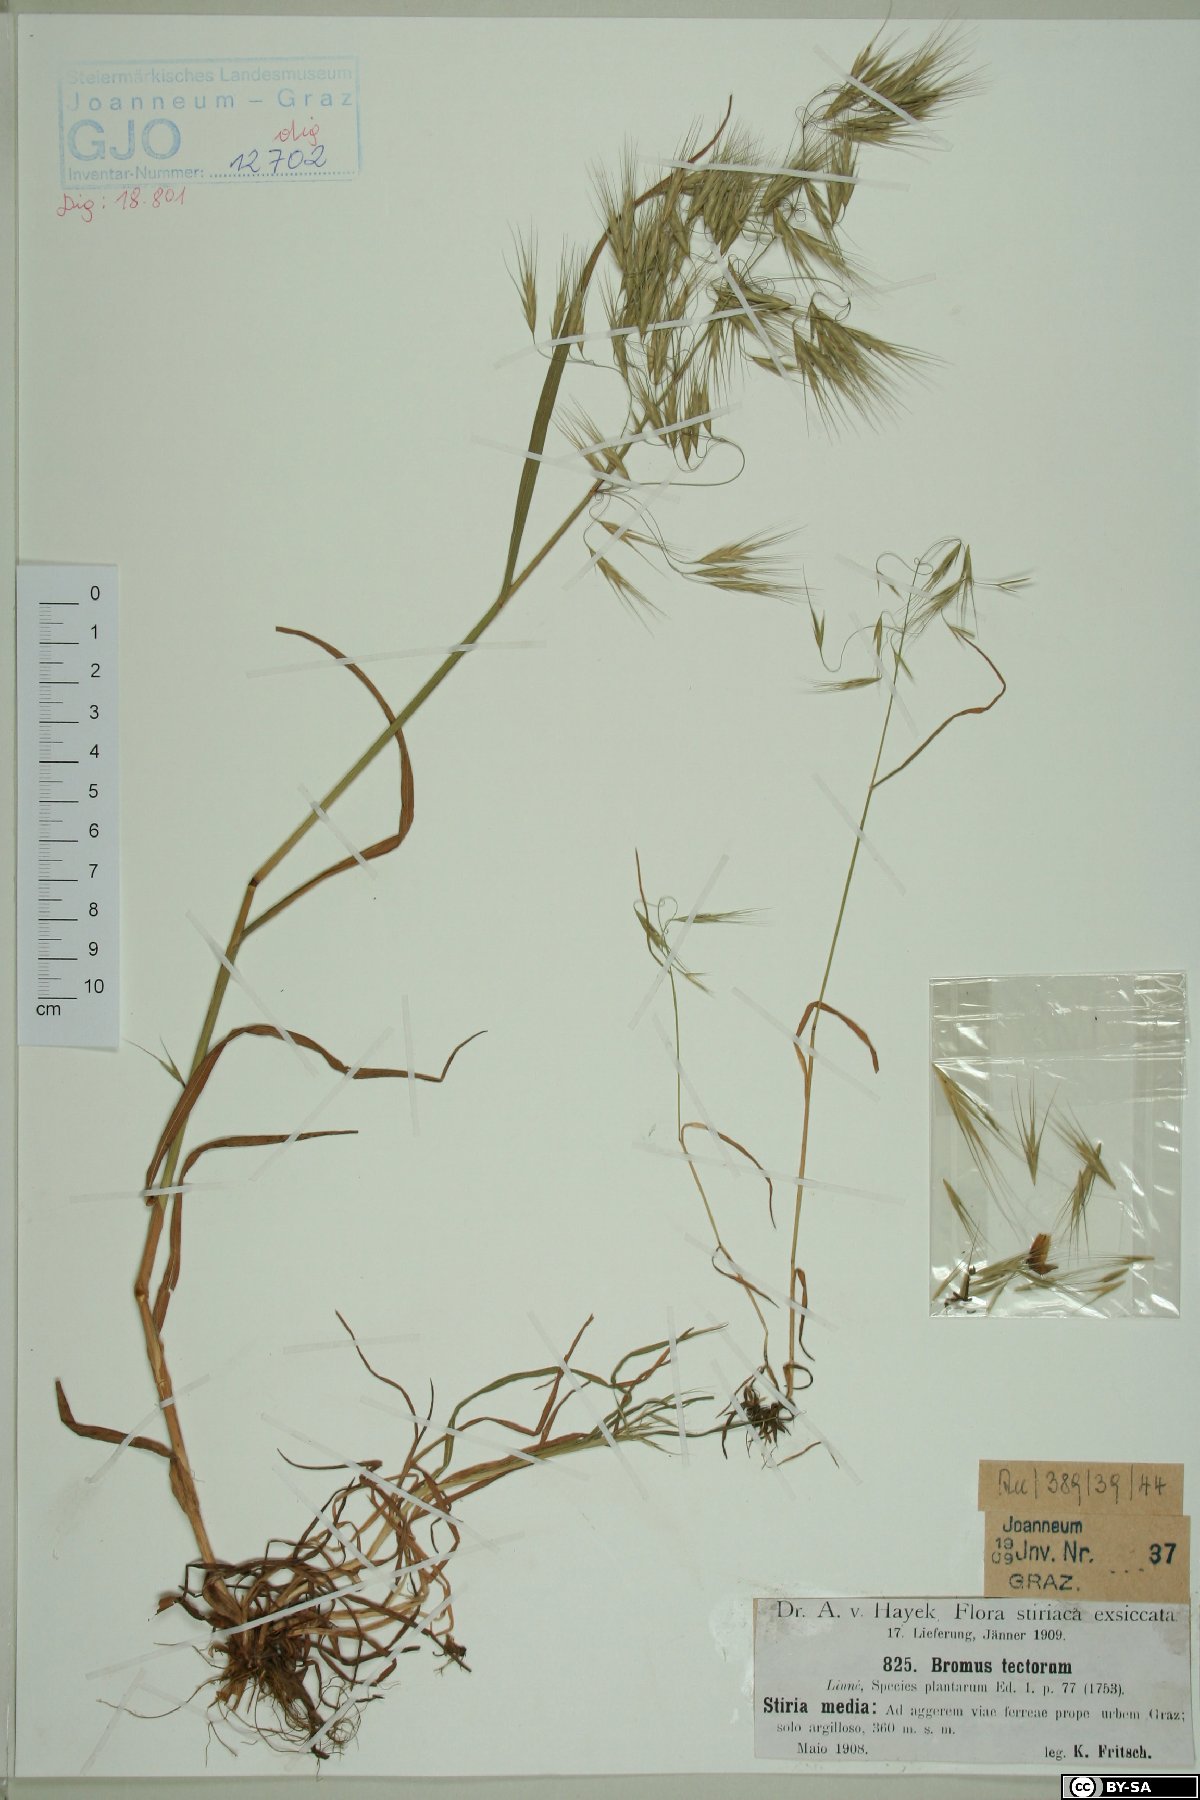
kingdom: Plantae
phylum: Tracheophyta
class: Liliopsida
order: Poales
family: Poaceae
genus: Bromus
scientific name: Bromus tectorum
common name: Cheatgrass
